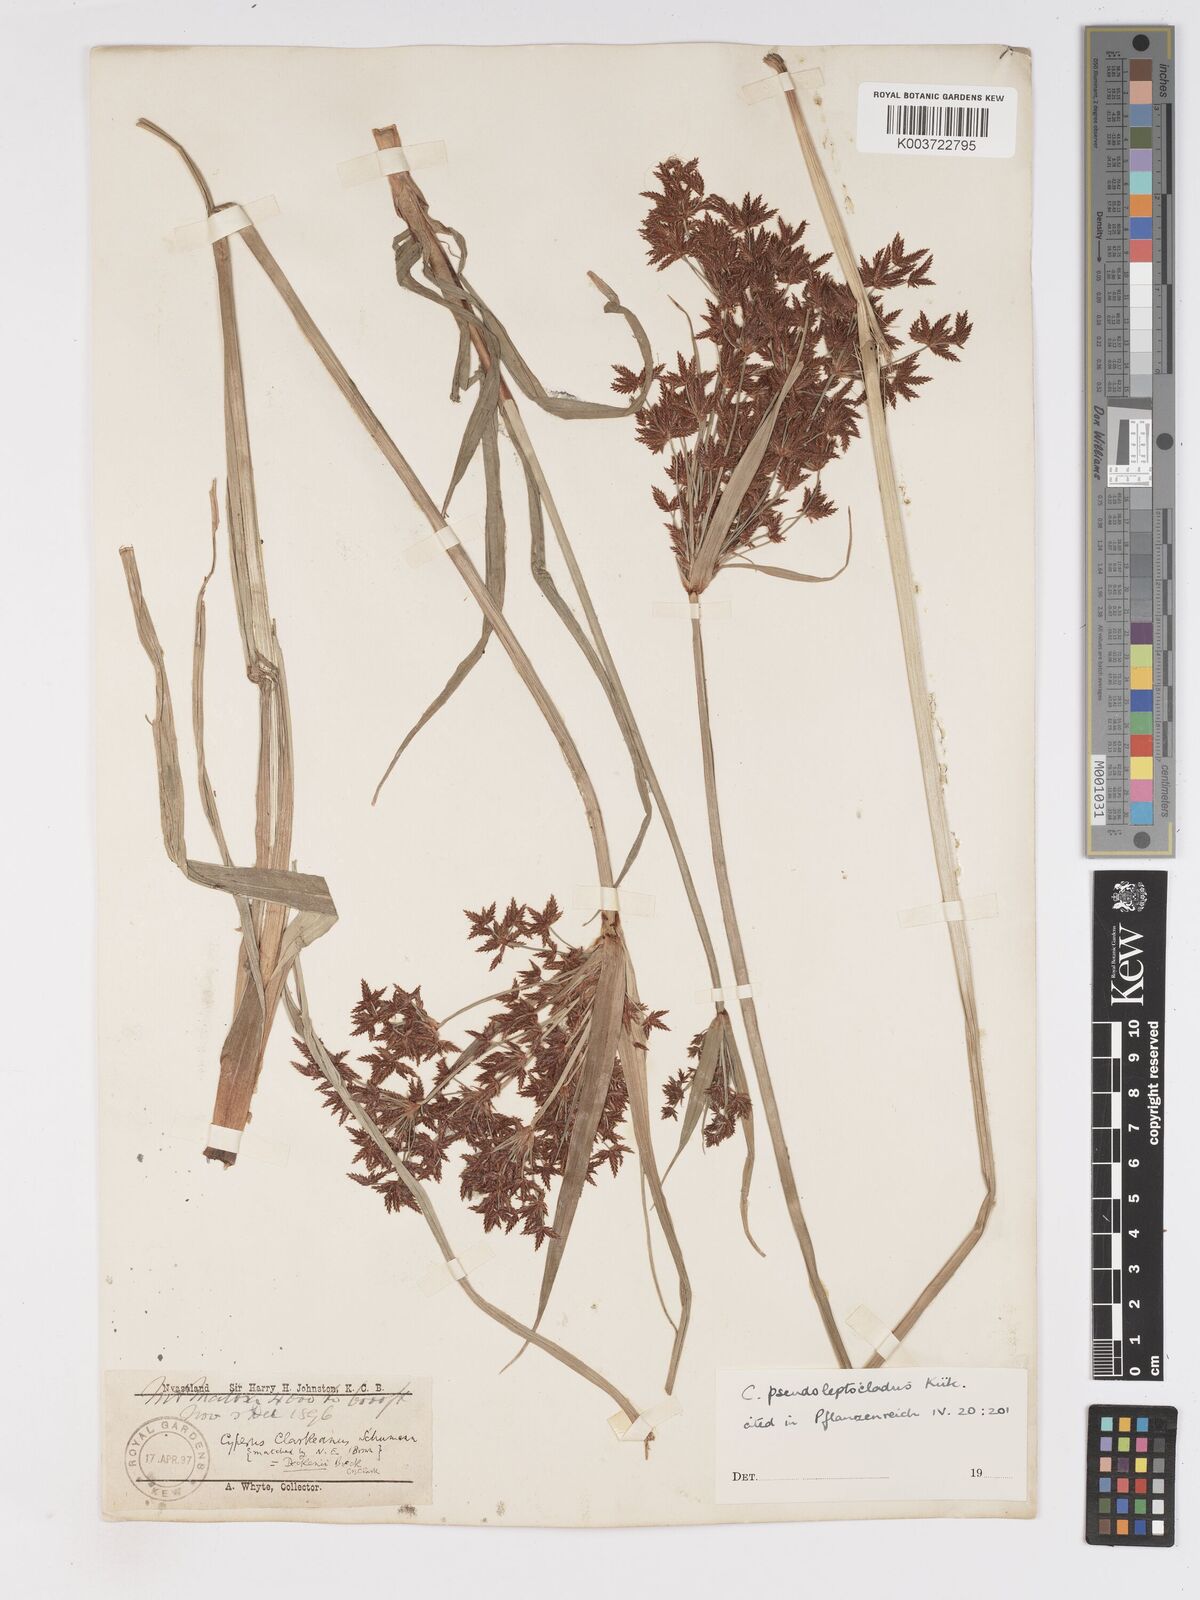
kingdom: Plantae
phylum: Tracheophyta
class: Liliopsida
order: Poales
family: Cyperaceae
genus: Cyperus
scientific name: Cyperus glaucophyllus
